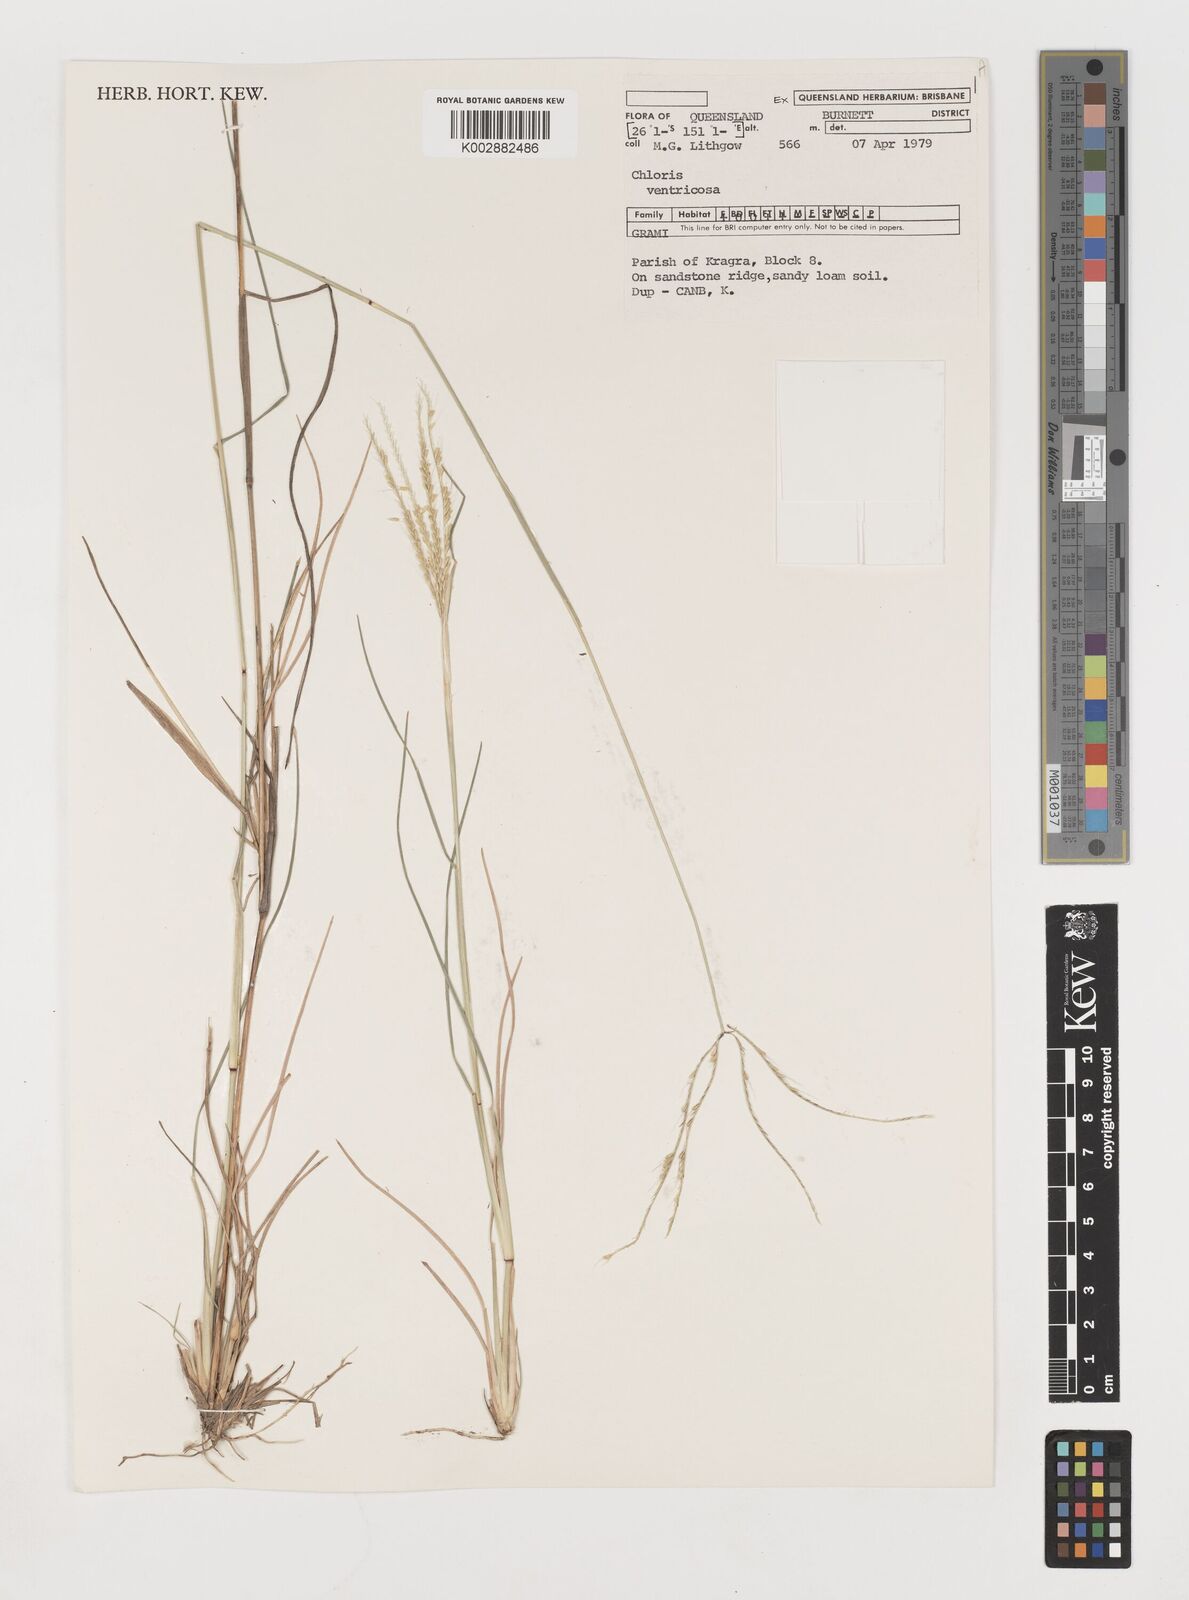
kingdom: Plantae
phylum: Tracheophyta
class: Liliopsida
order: Poales
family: Poaceae
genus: Chloris
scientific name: Chloris ventricosa
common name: Australian windmill grass
